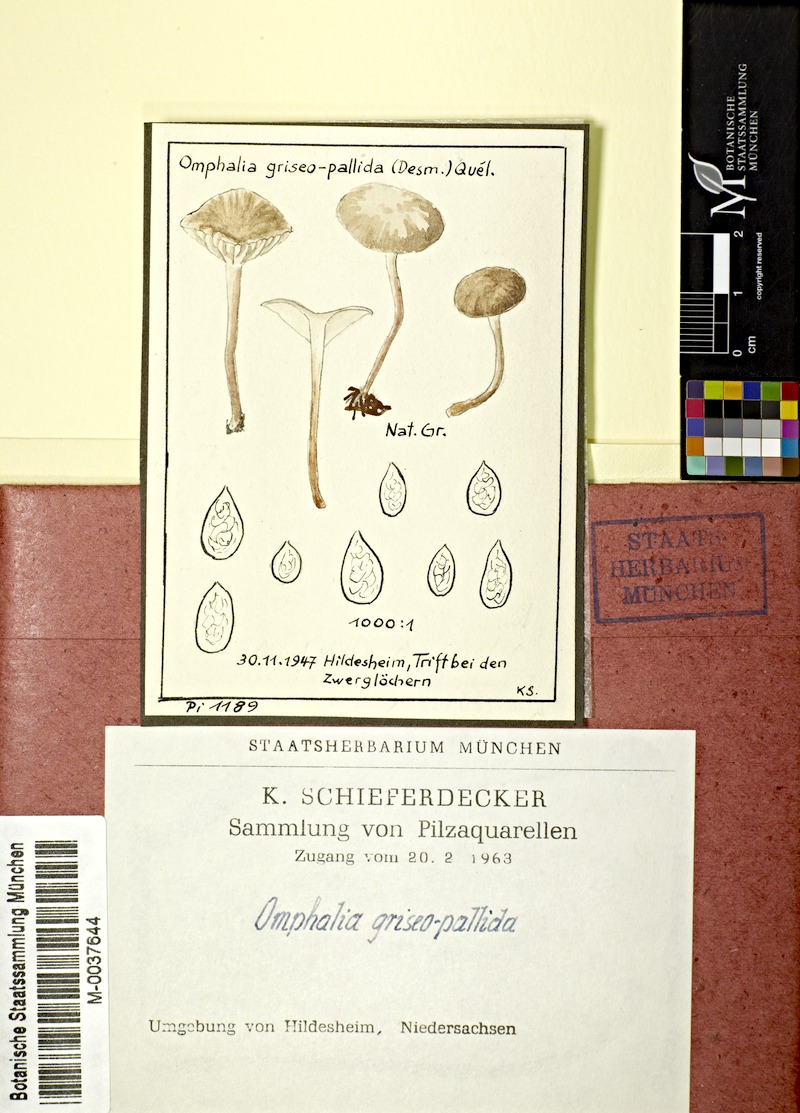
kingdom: Fungi
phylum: Basidiomycota
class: Agaricomycetes
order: Agaricales
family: Hygrophoraceae
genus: Arrhenia
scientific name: Arrhenia griseopallida
